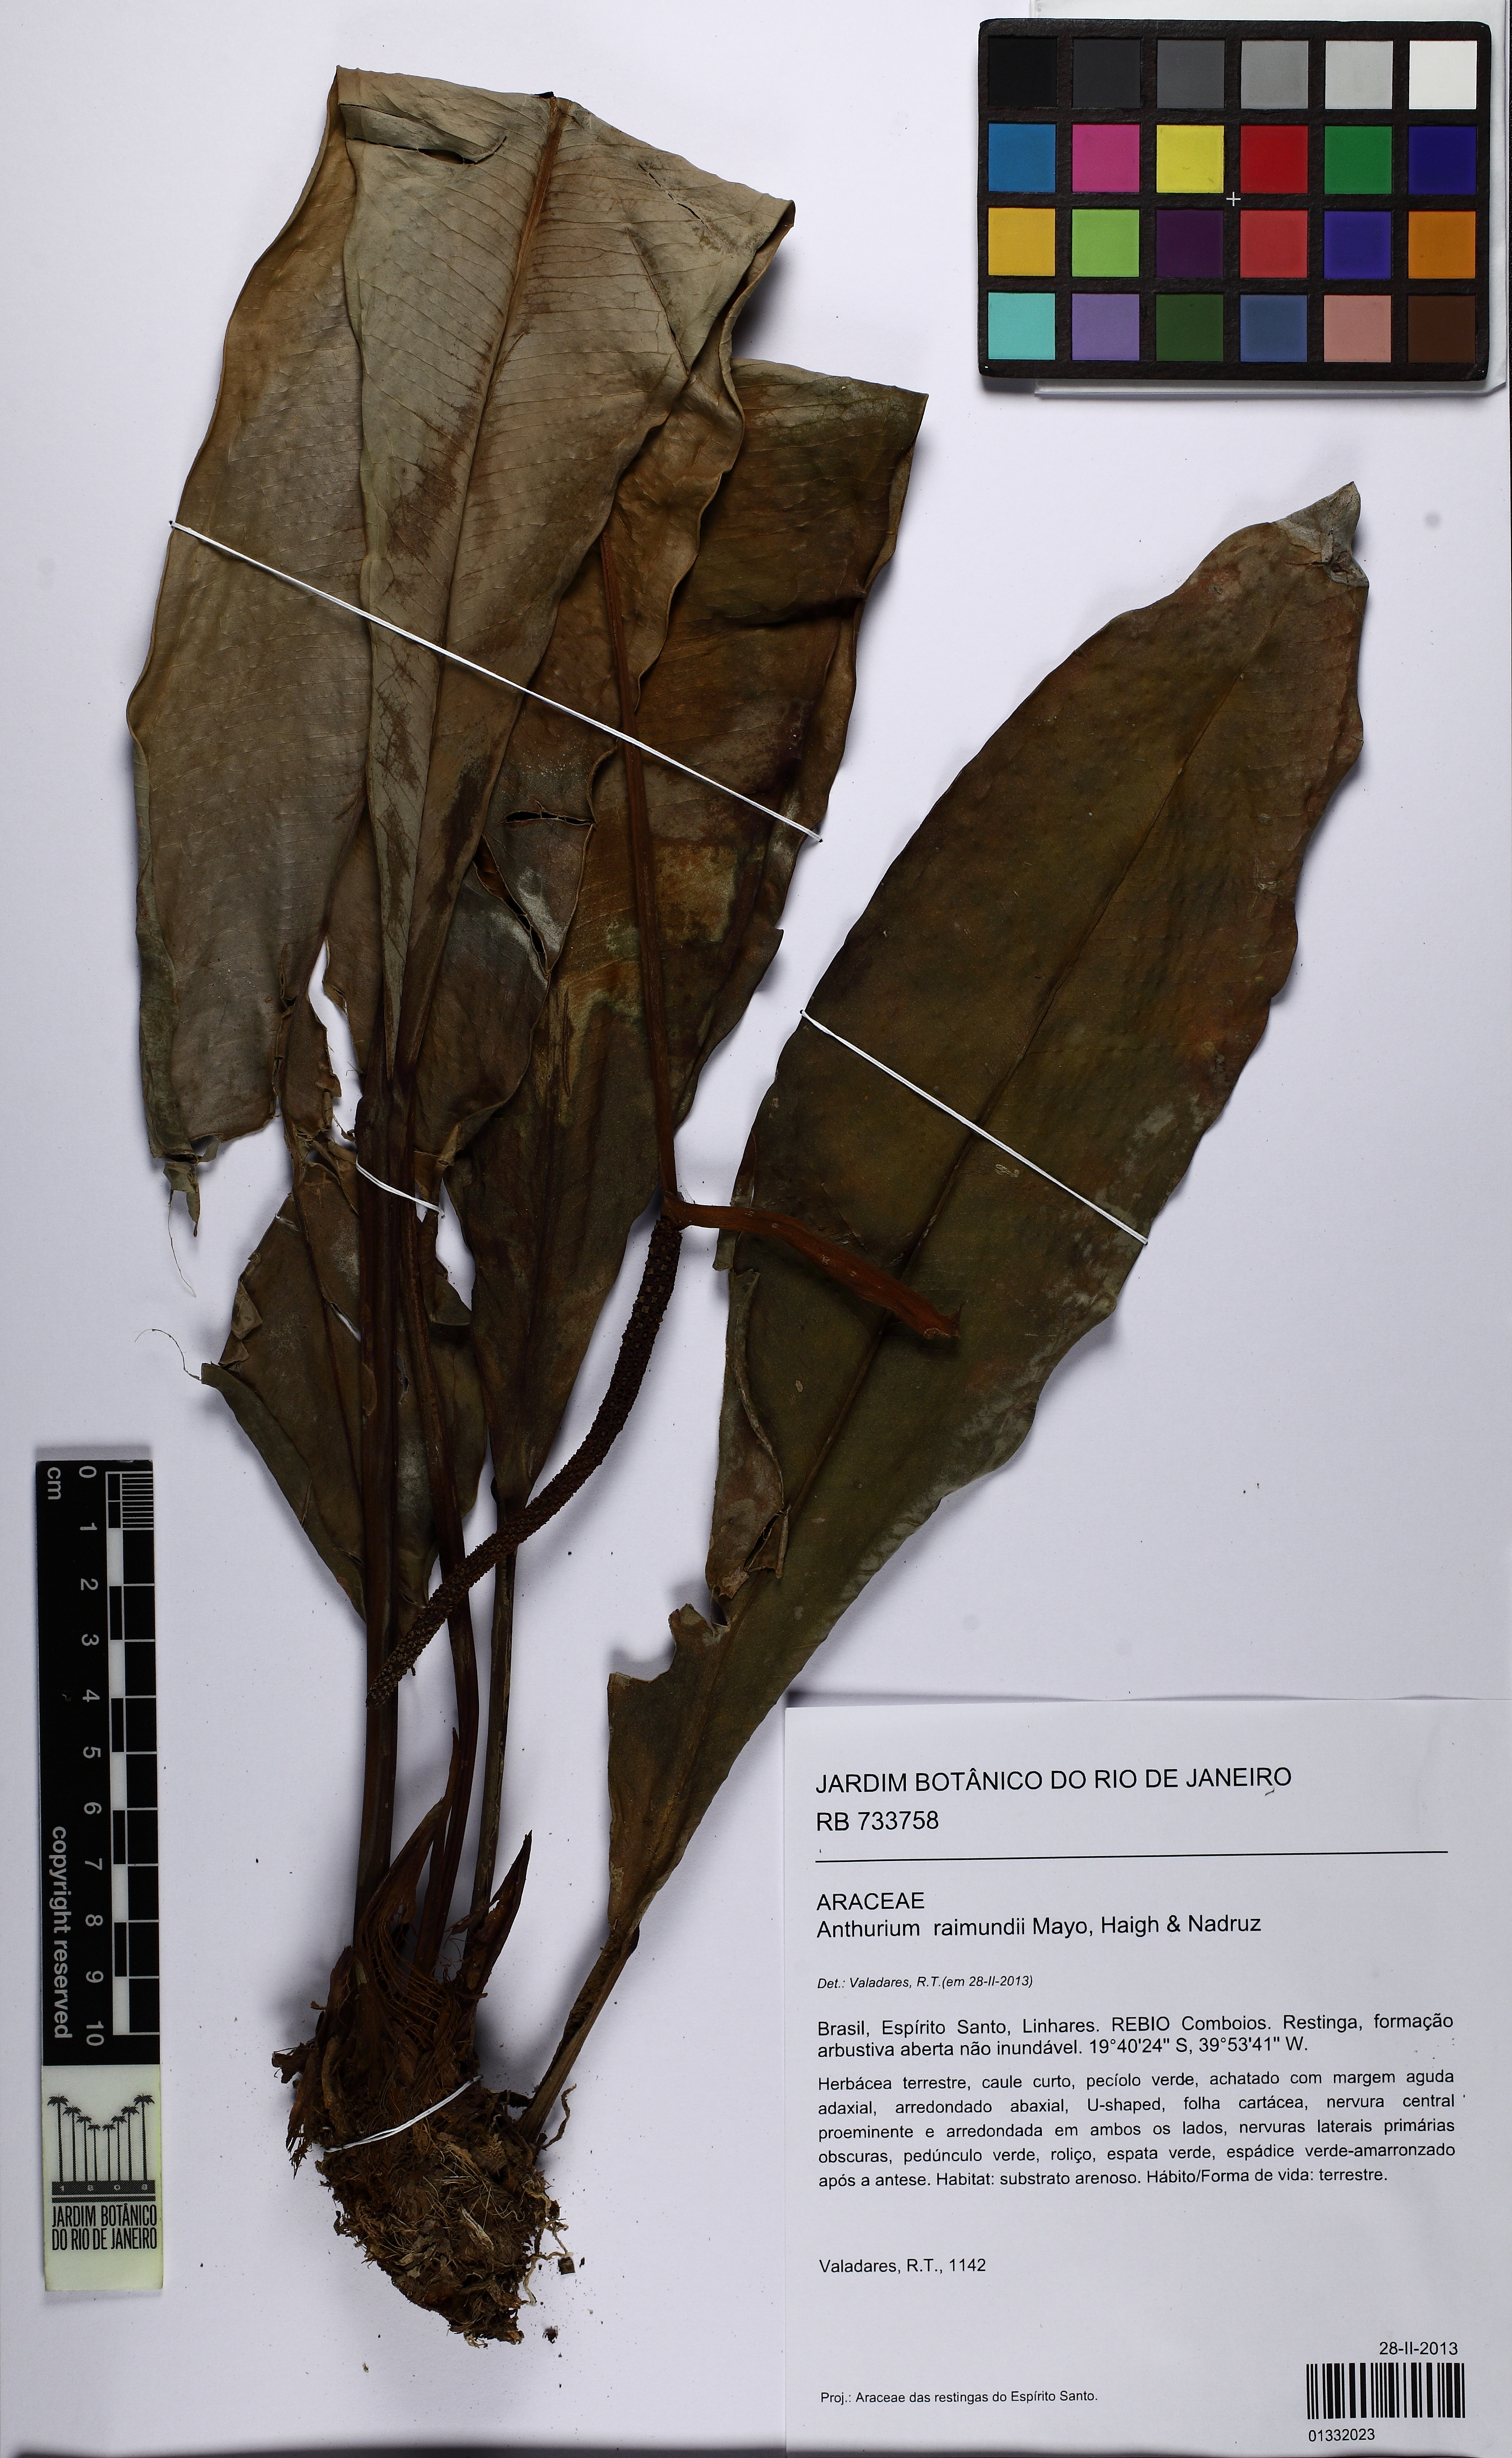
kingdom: Plantae
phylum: Tracheophyta
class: Liliopsida
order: Alismatales
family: Araceae
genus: Anthurium
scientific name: Anthurium raimundii
